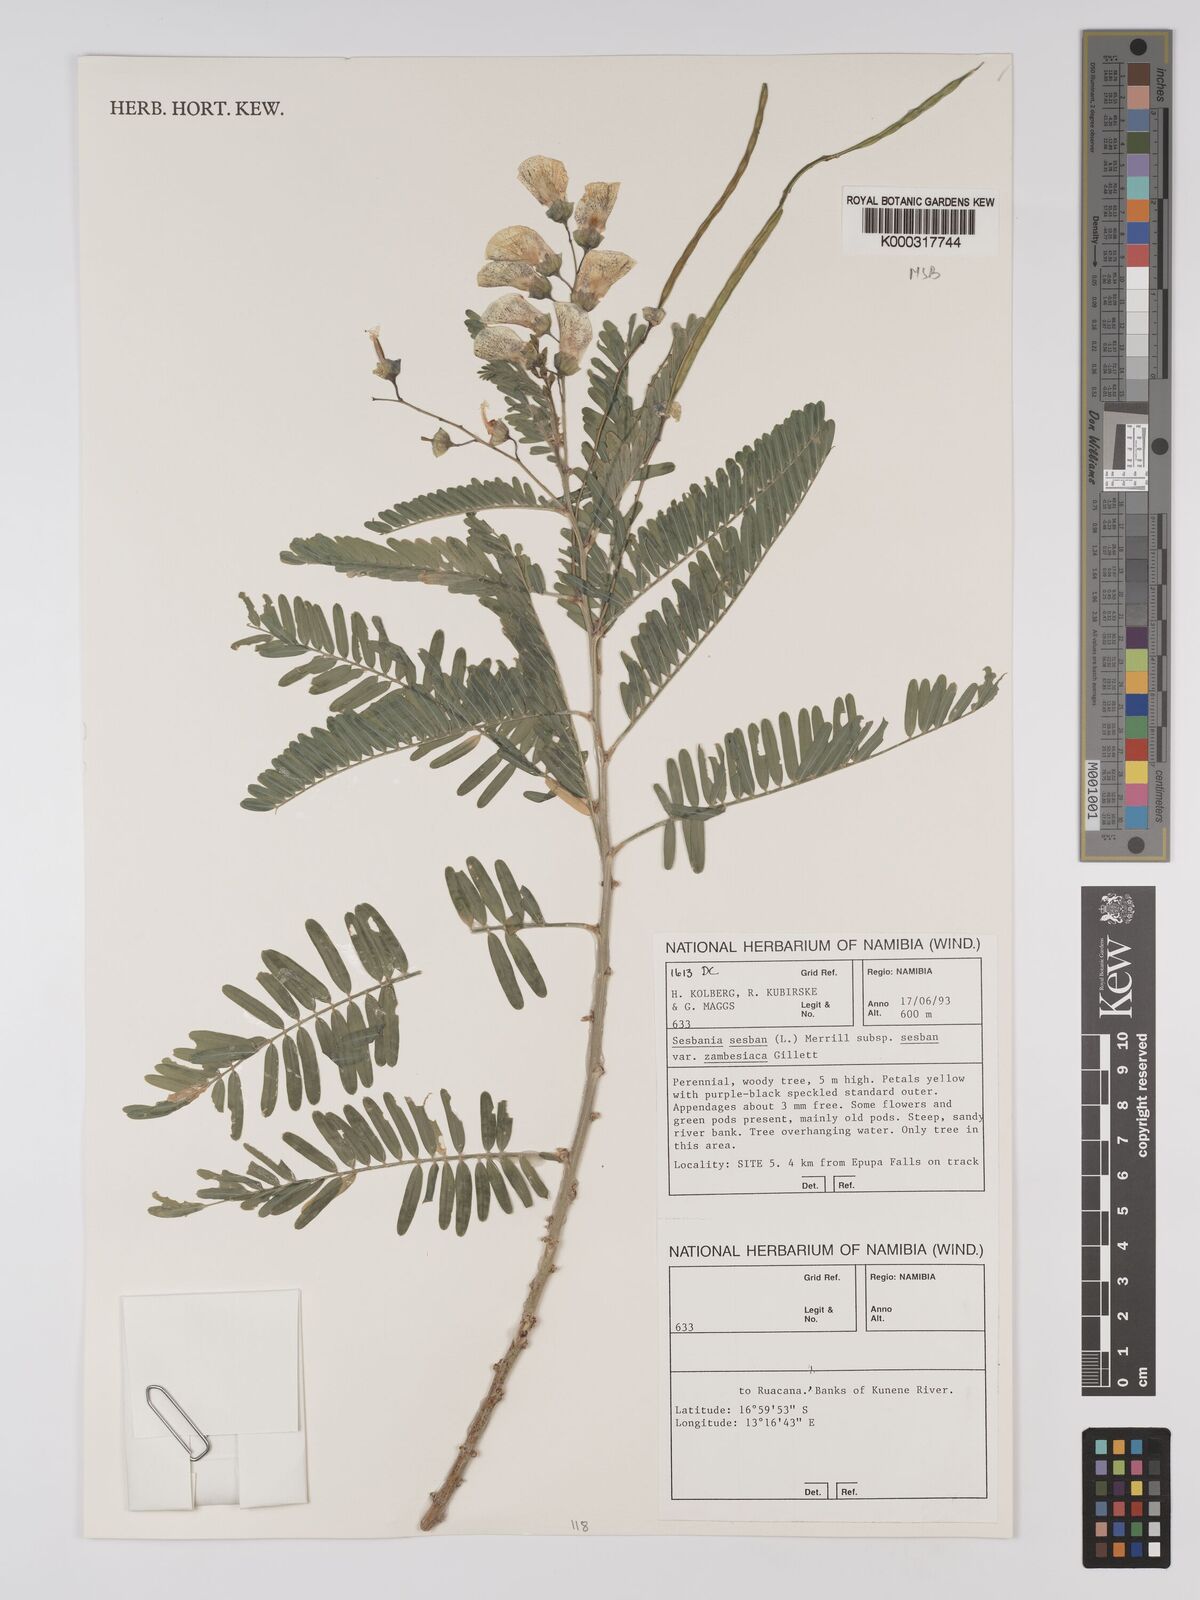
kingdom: Plantae
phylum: Tracheophyta
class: Magnoliopsida
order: Fabales
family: Fabaceae
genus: Sesbania
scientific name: Sesbania sesban
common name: Egyptian sesban
